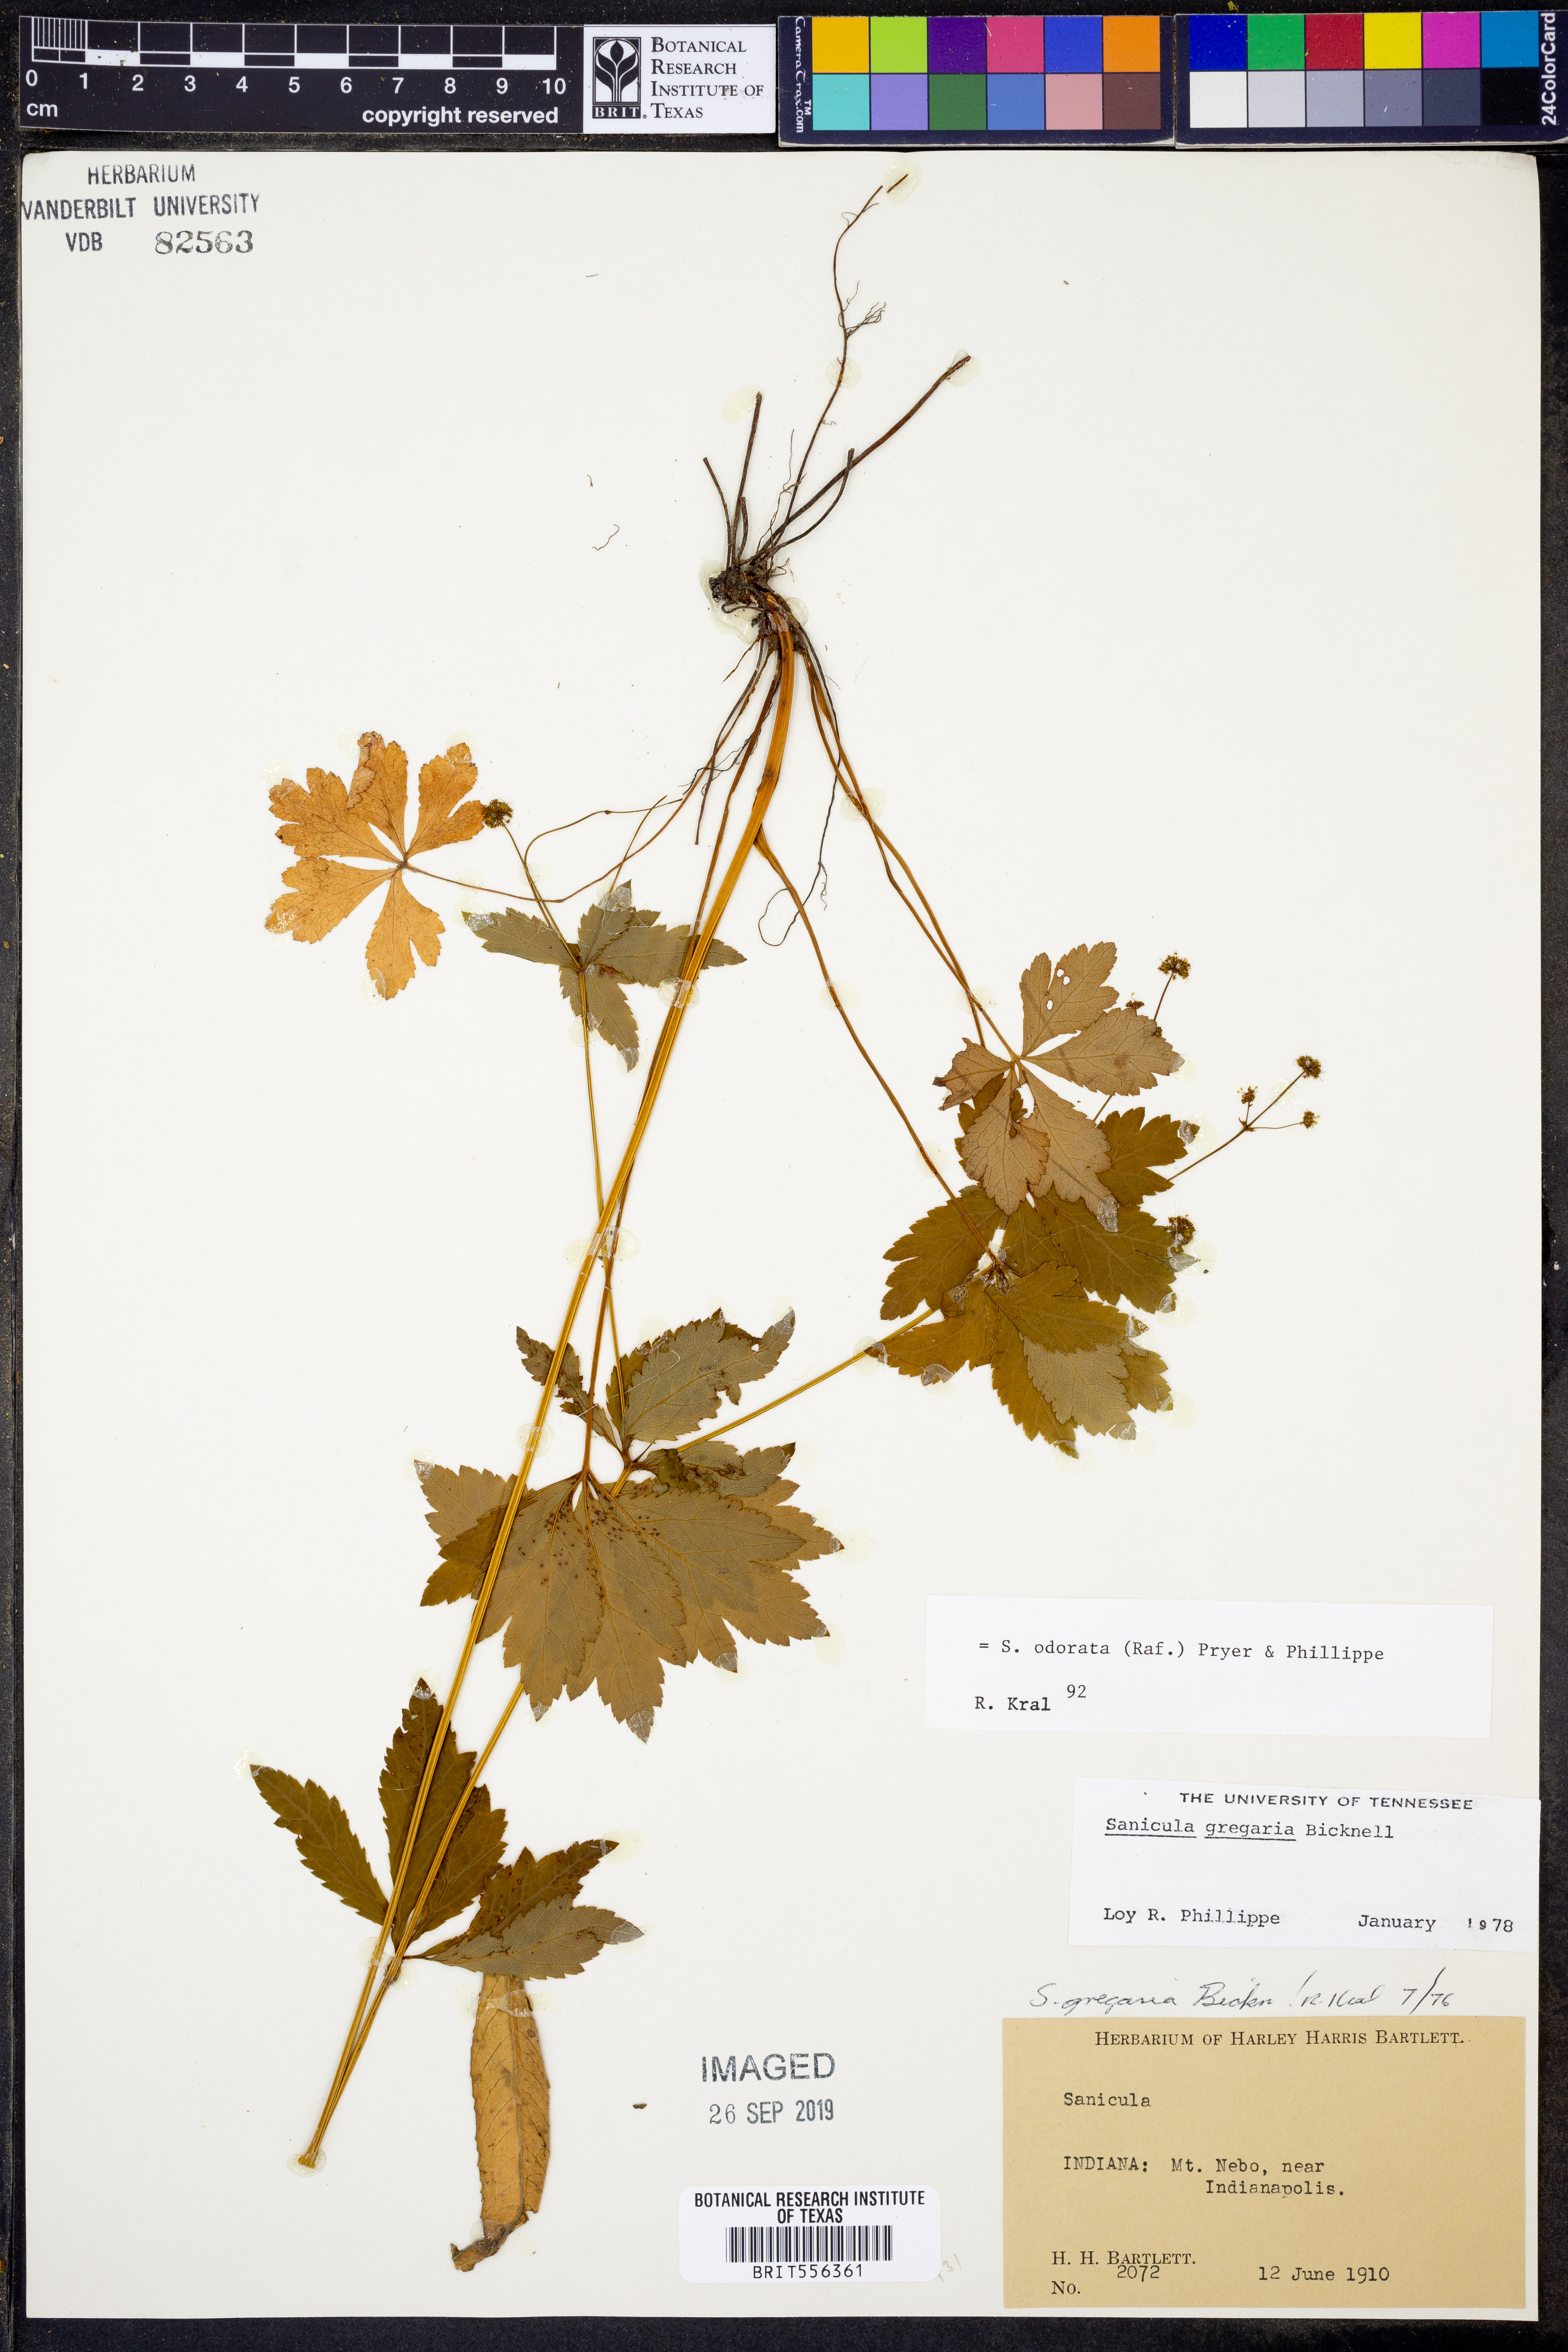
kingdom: Plantae
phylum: Tracheophyta
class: Magnoliopsida
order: Apiales
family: Apiaceae
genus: Sanicula
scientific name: Sanicula odorata
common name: Cluster sanicle
